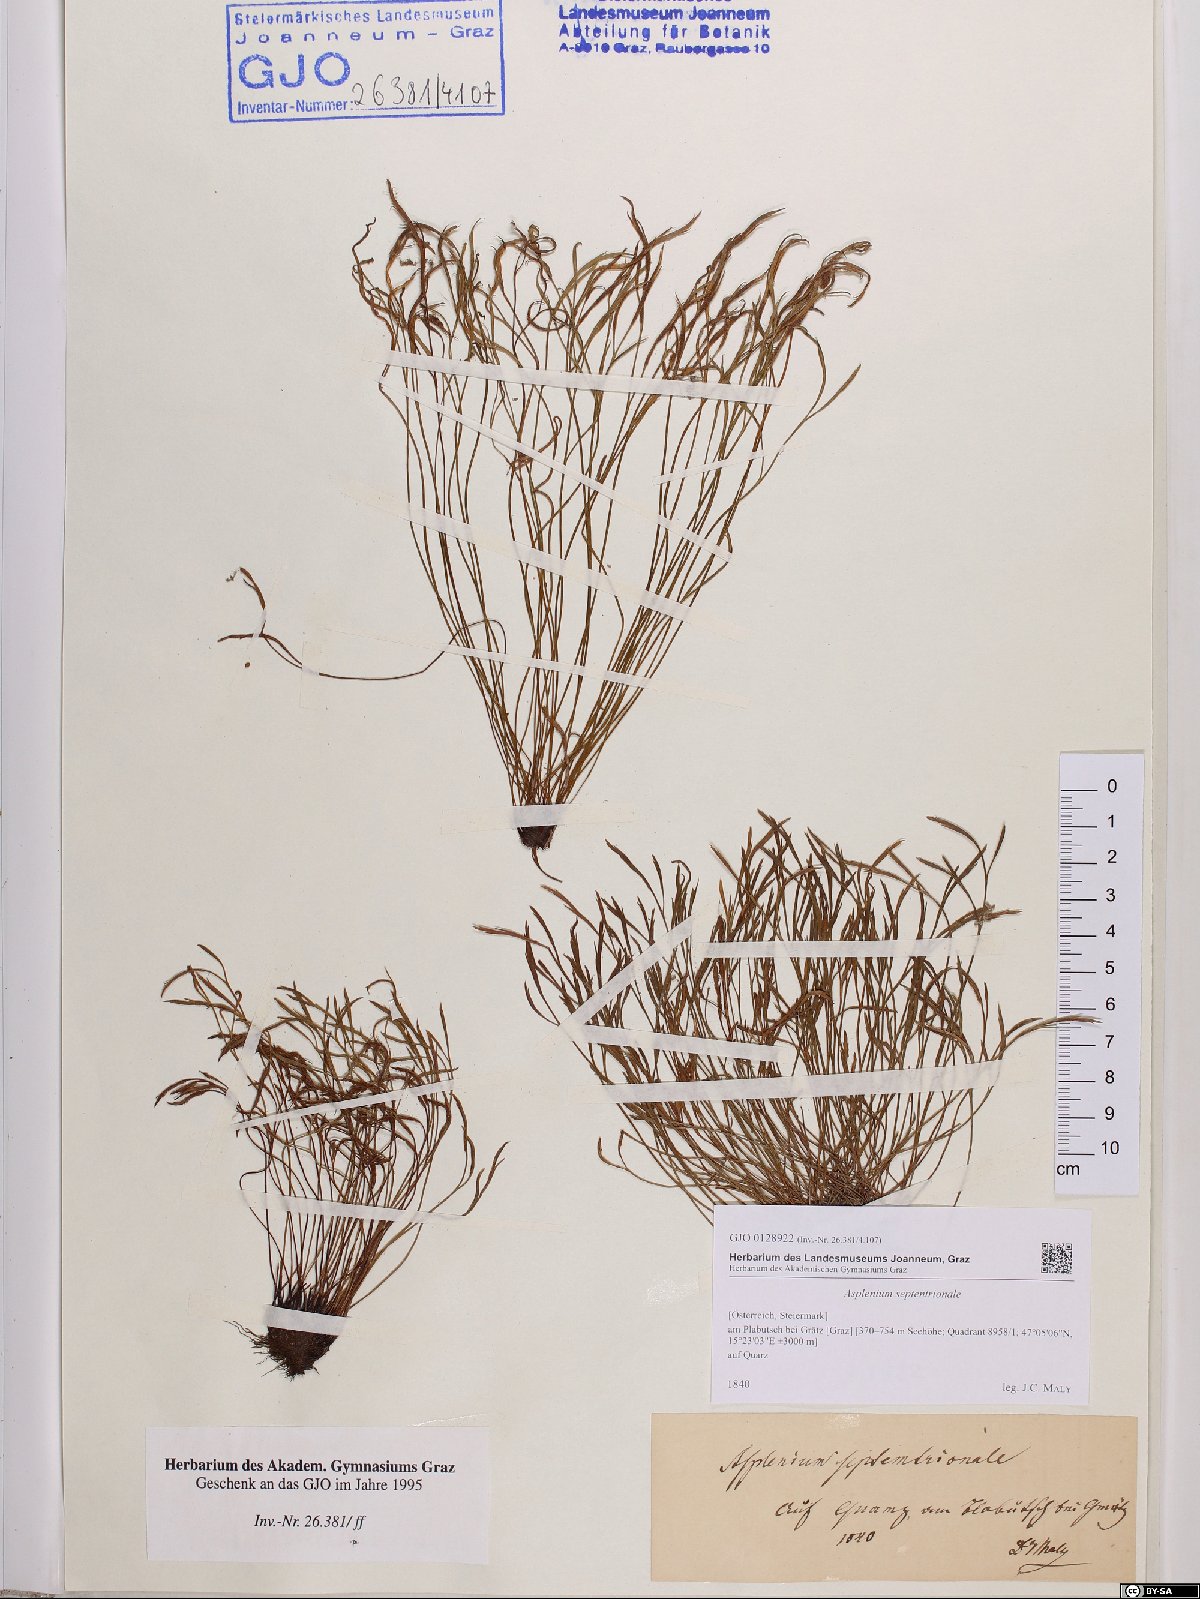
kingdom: Plantae
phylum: Tracheophyta
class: Polypodiopsida
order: Polypodiales
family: Aspleniaceae
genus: Asplenium
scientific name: Asplenium septentrionale
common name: Forked spleenwort
